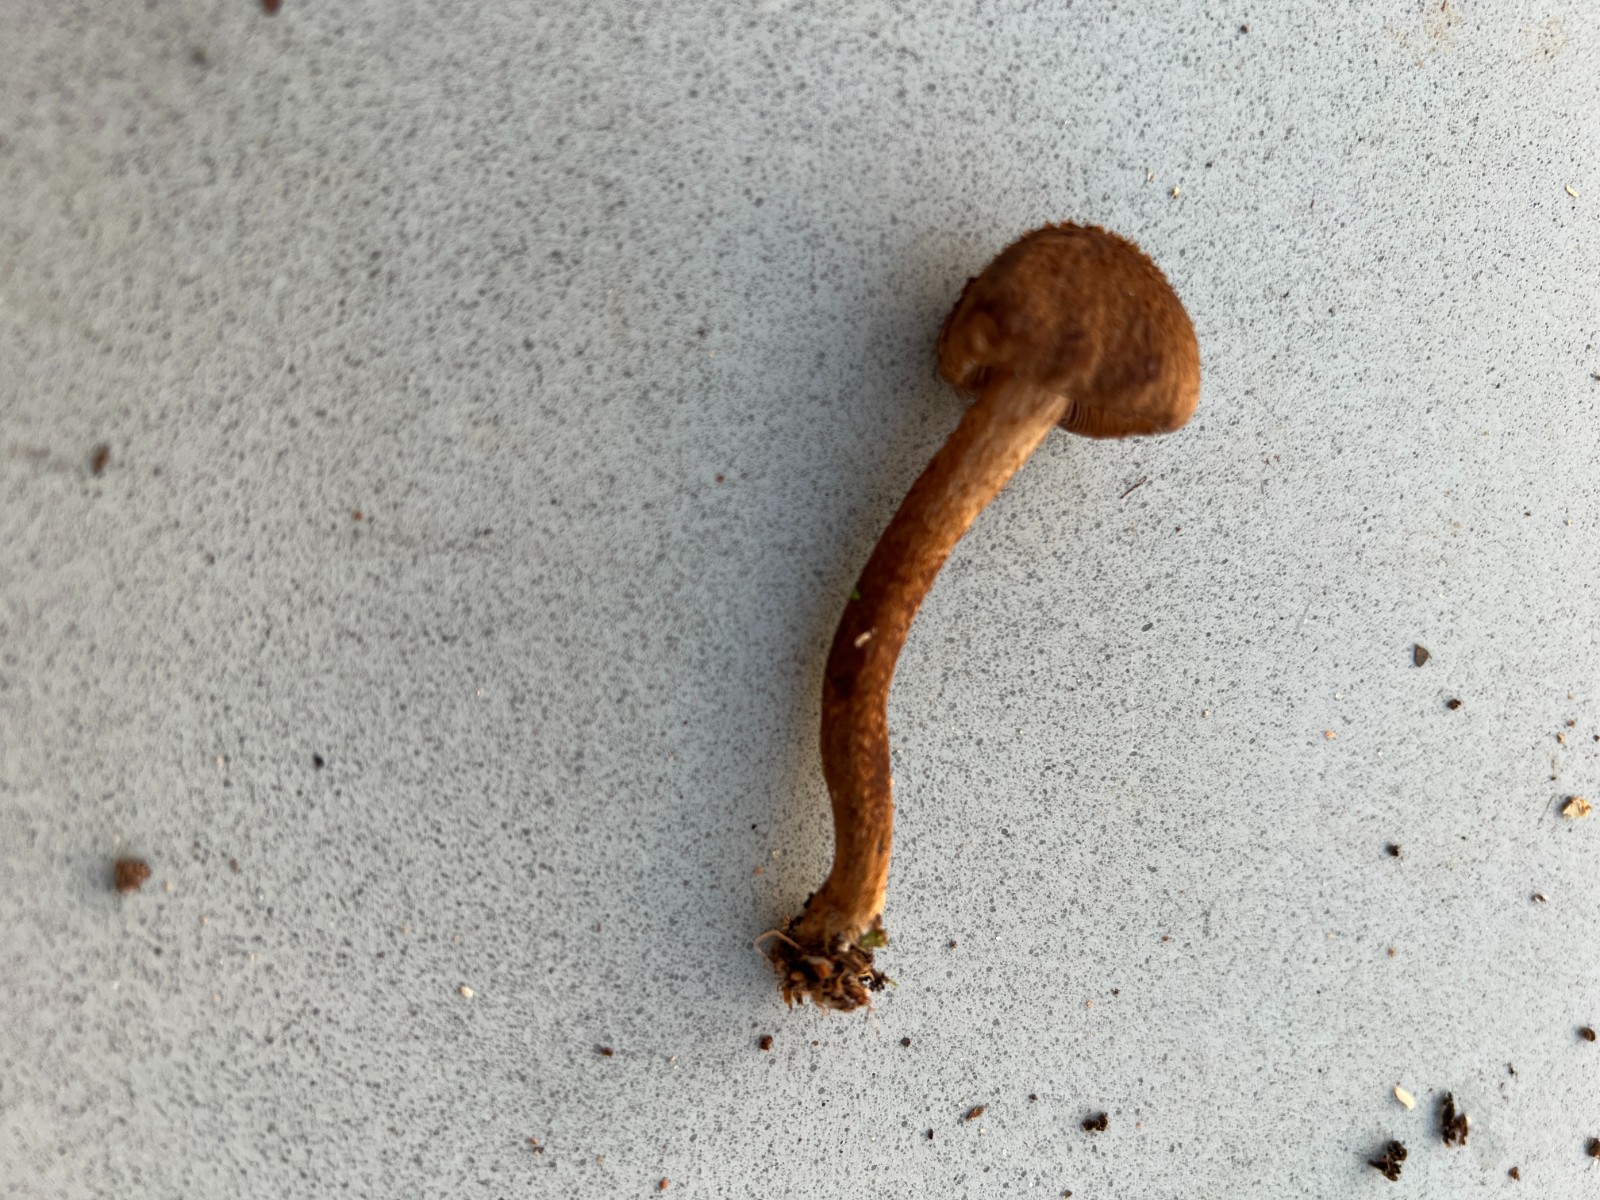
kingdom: Fungi
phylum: Basidiomycota
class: Agaricomycetes
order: Agaricales
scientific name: Agaricales
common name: champignonordenen
